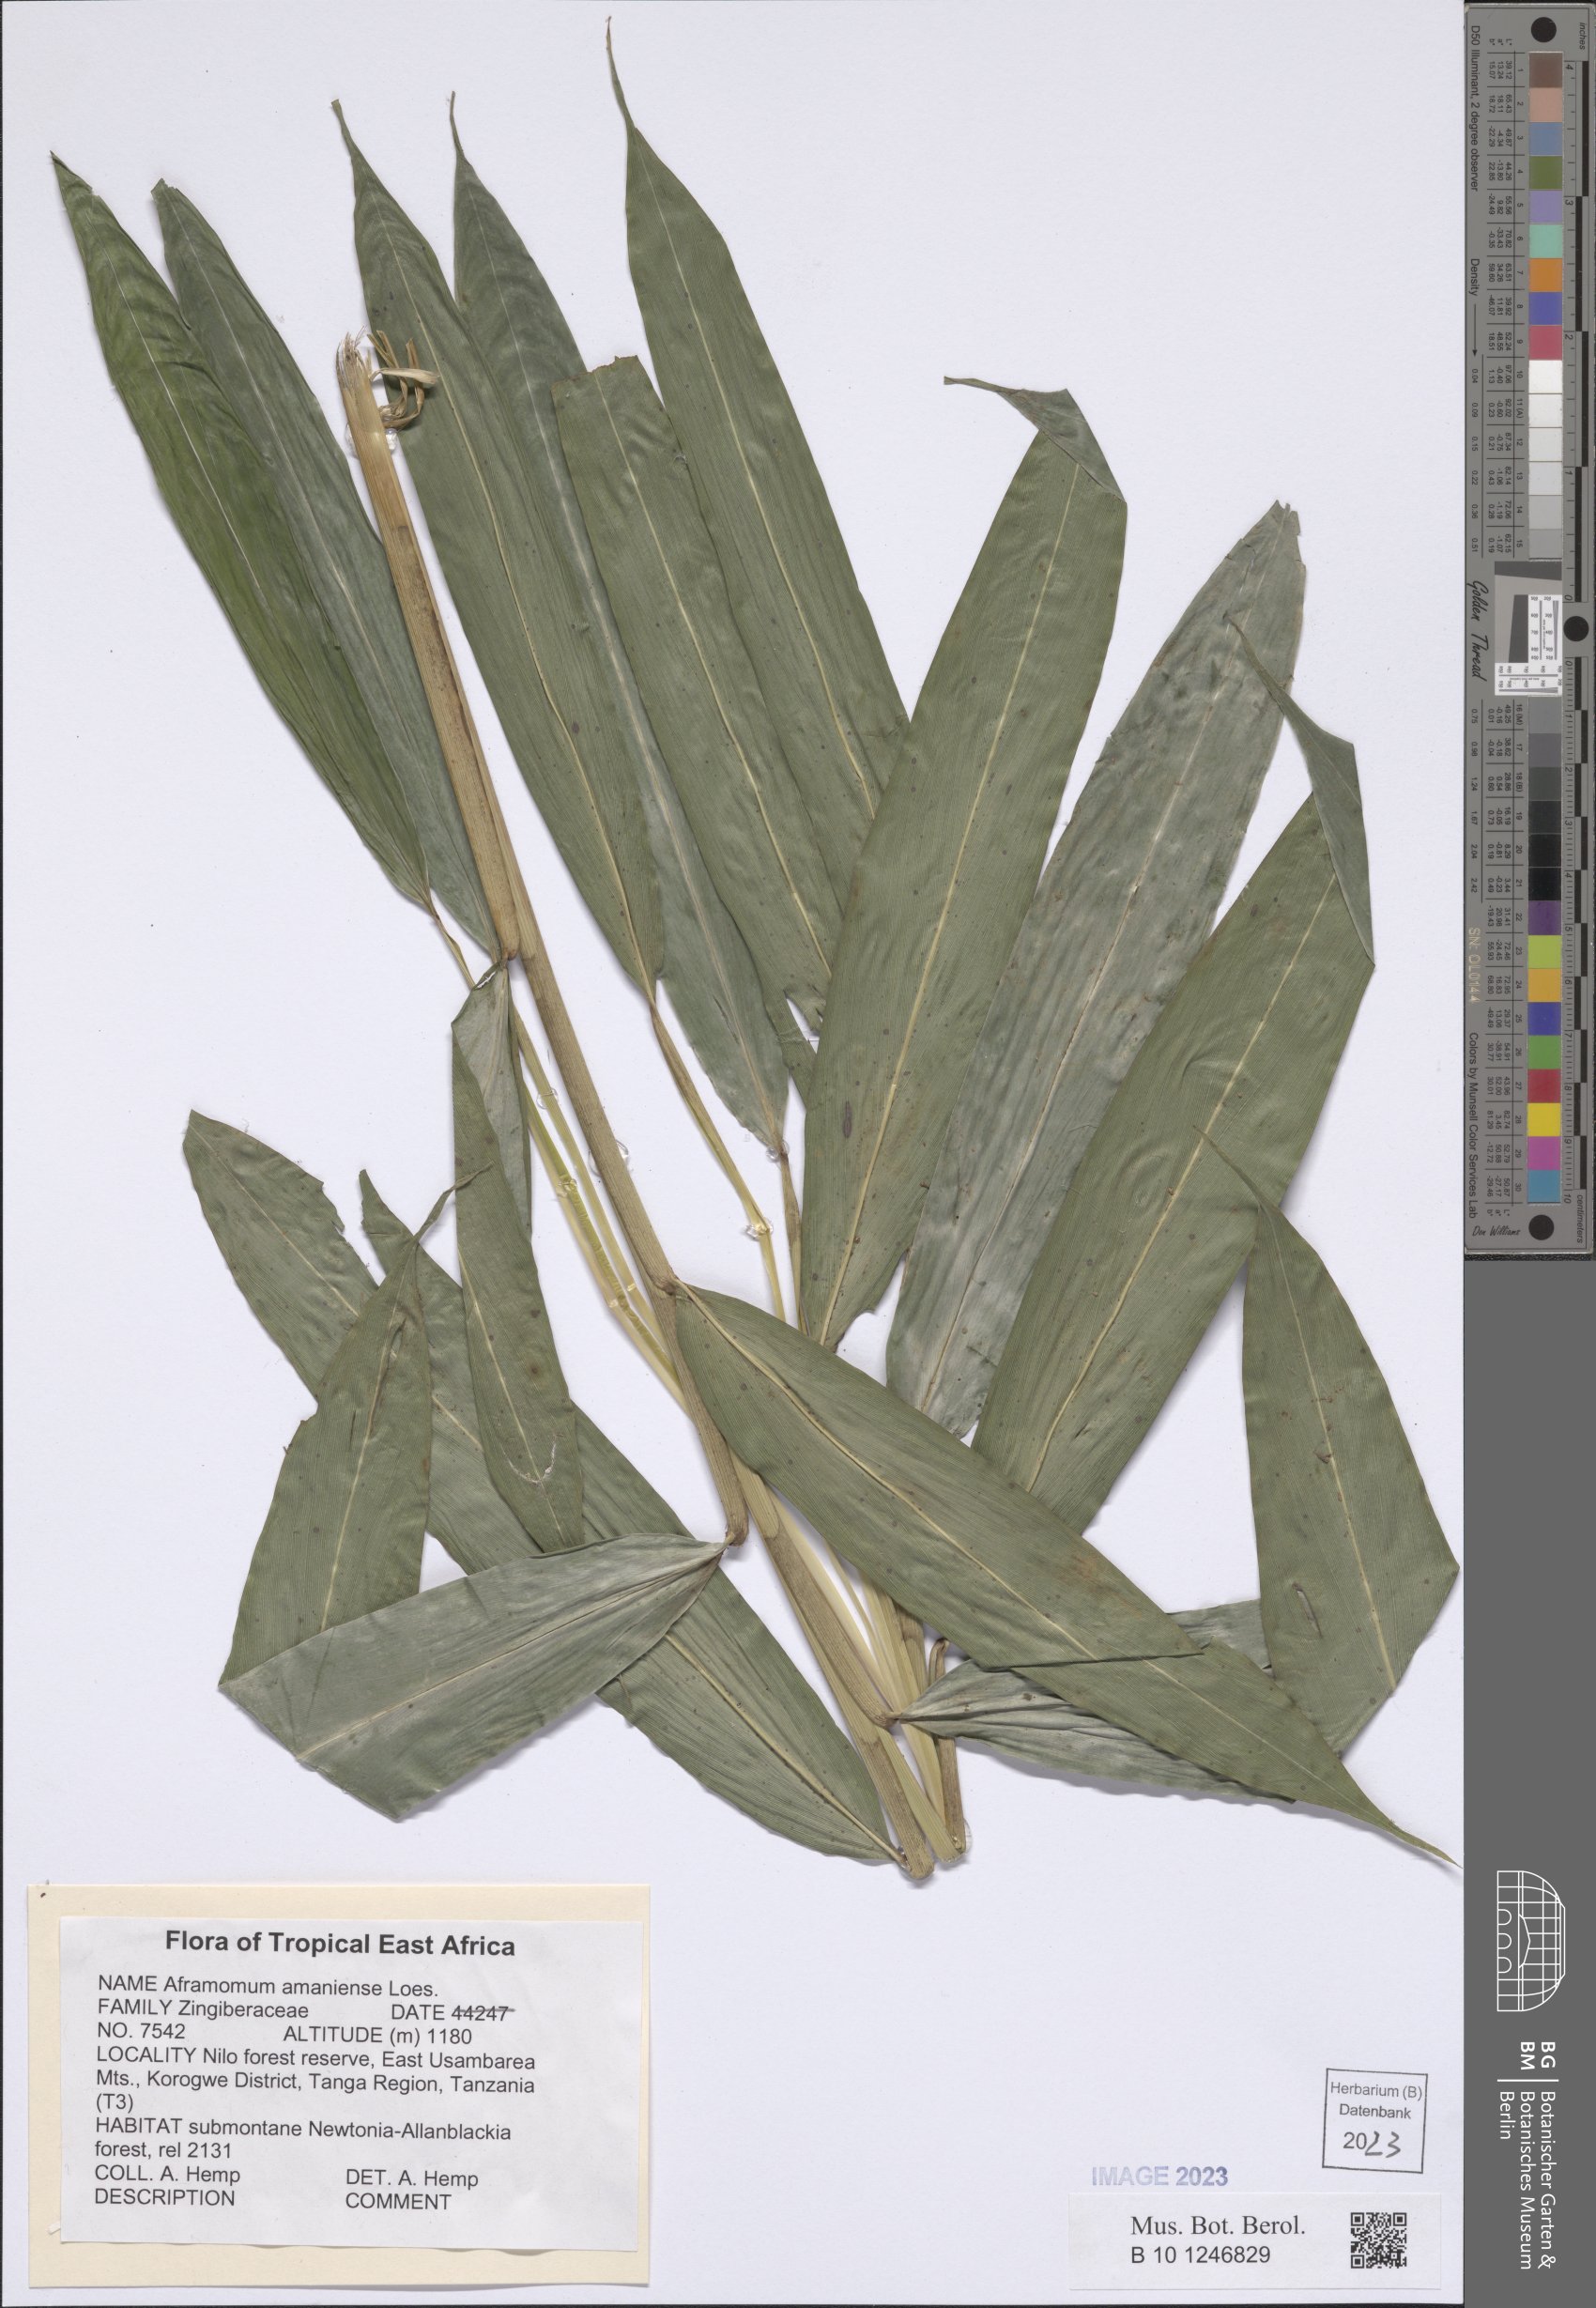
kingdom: Plantae
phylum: Tracheophyta
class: Liliopsida
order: Zingiberales
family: Zingiberaceae
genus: Aframomum
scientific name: Aframomum limbatum
